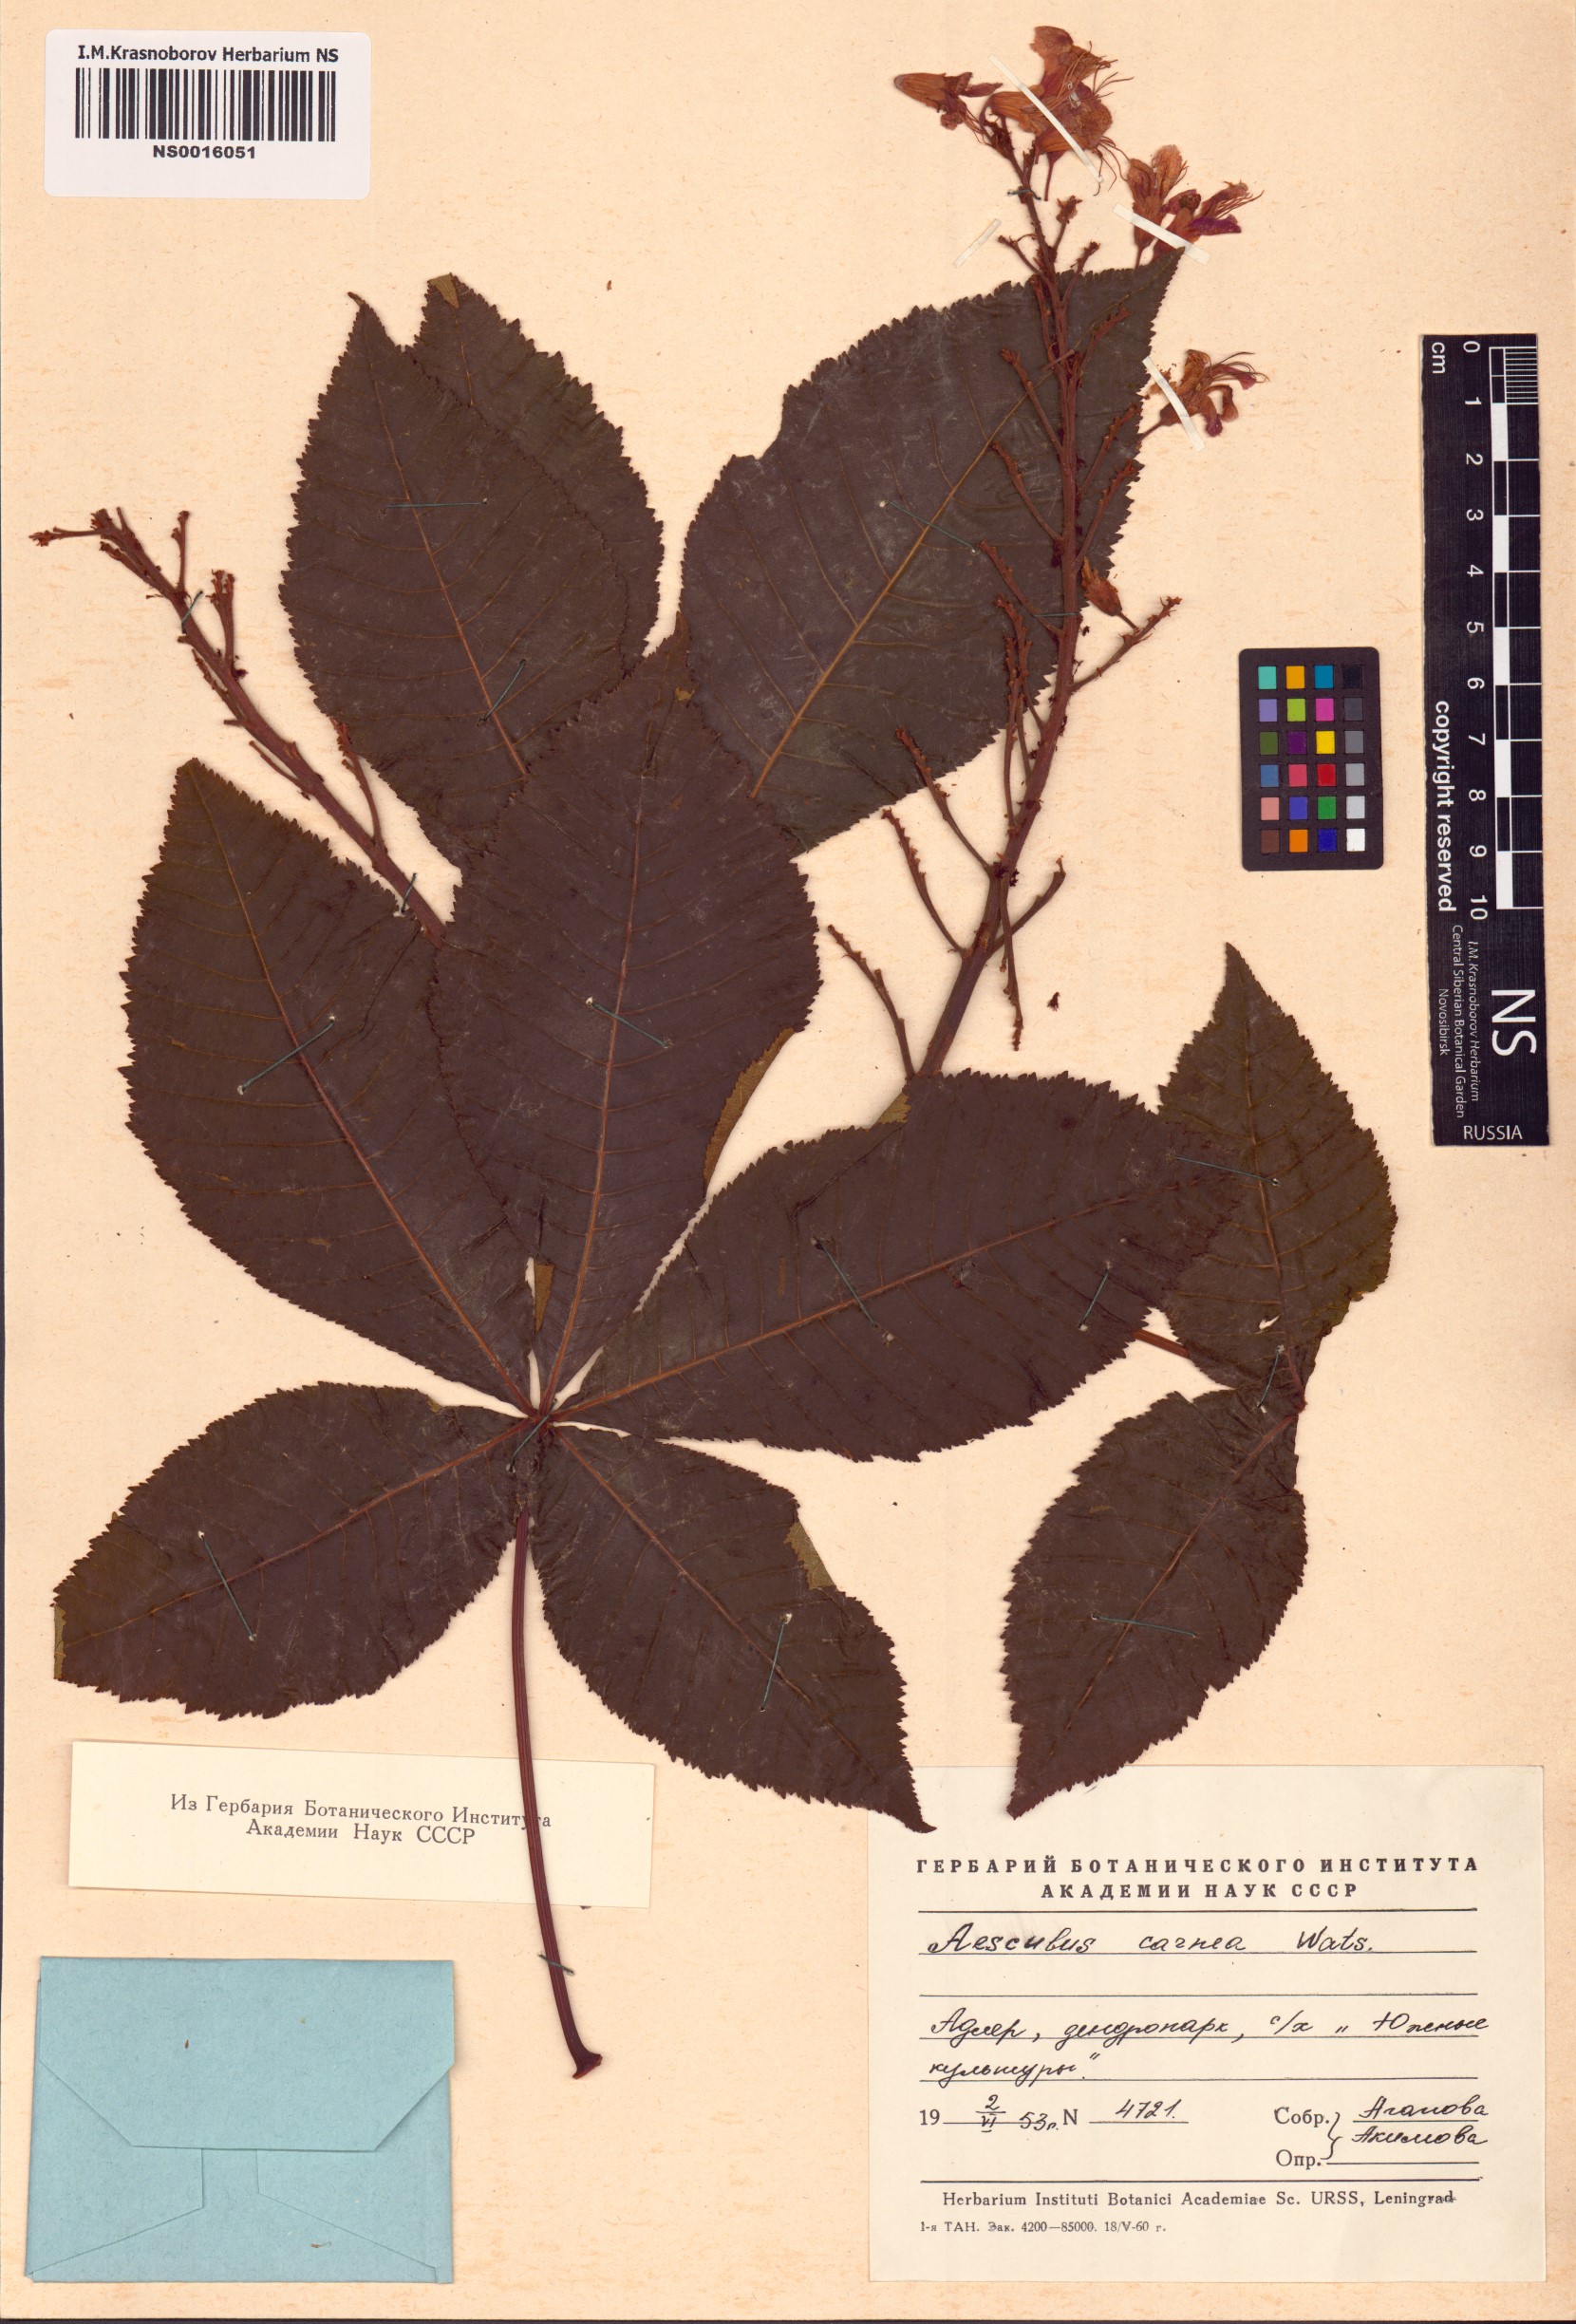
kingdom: Plantae
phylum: Tracheophyta
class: Magnoliopsida
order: Sapindales
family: Sapindaceae
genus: Aesculus
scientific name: Aesculus glabra
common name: Ohio buckeye
